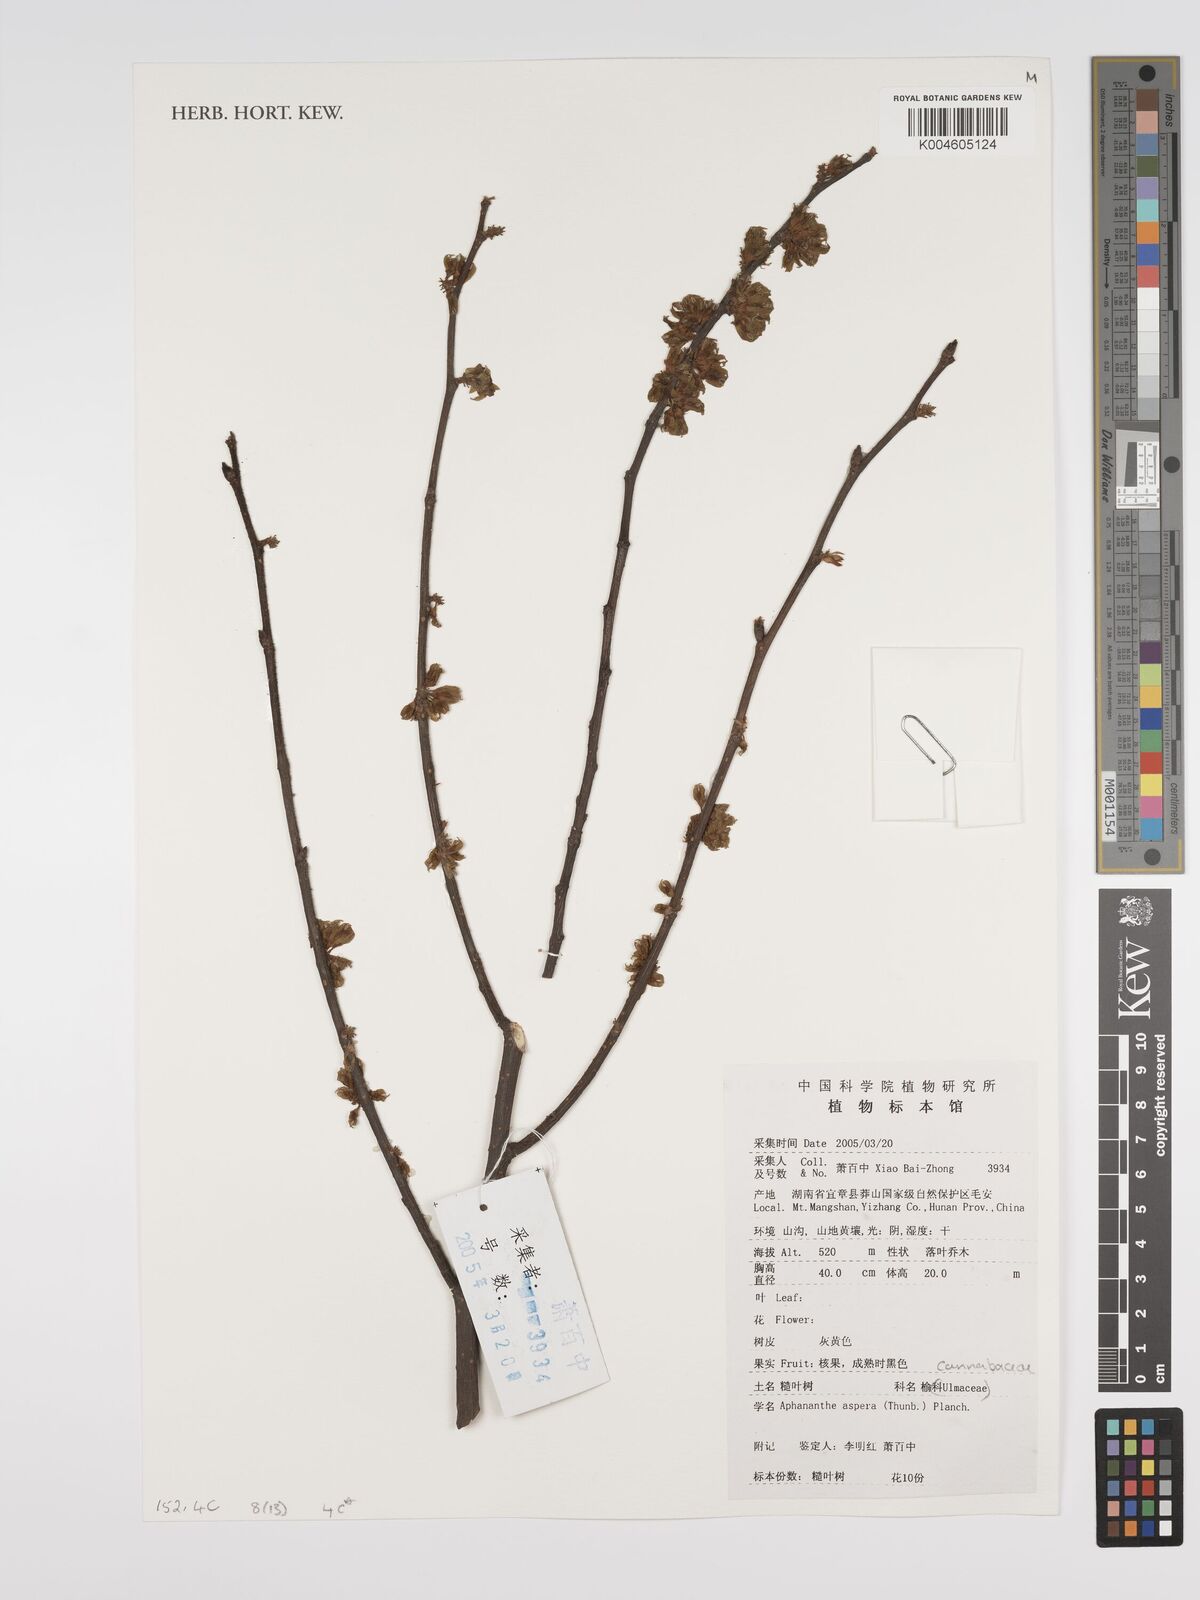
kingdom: Plantae
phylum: Tracheophyta
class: Magnoliopsida
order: Rosales
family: Cannabaceae
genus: Aphananthe
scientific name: Aphananthe aspera
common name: Mukutree
